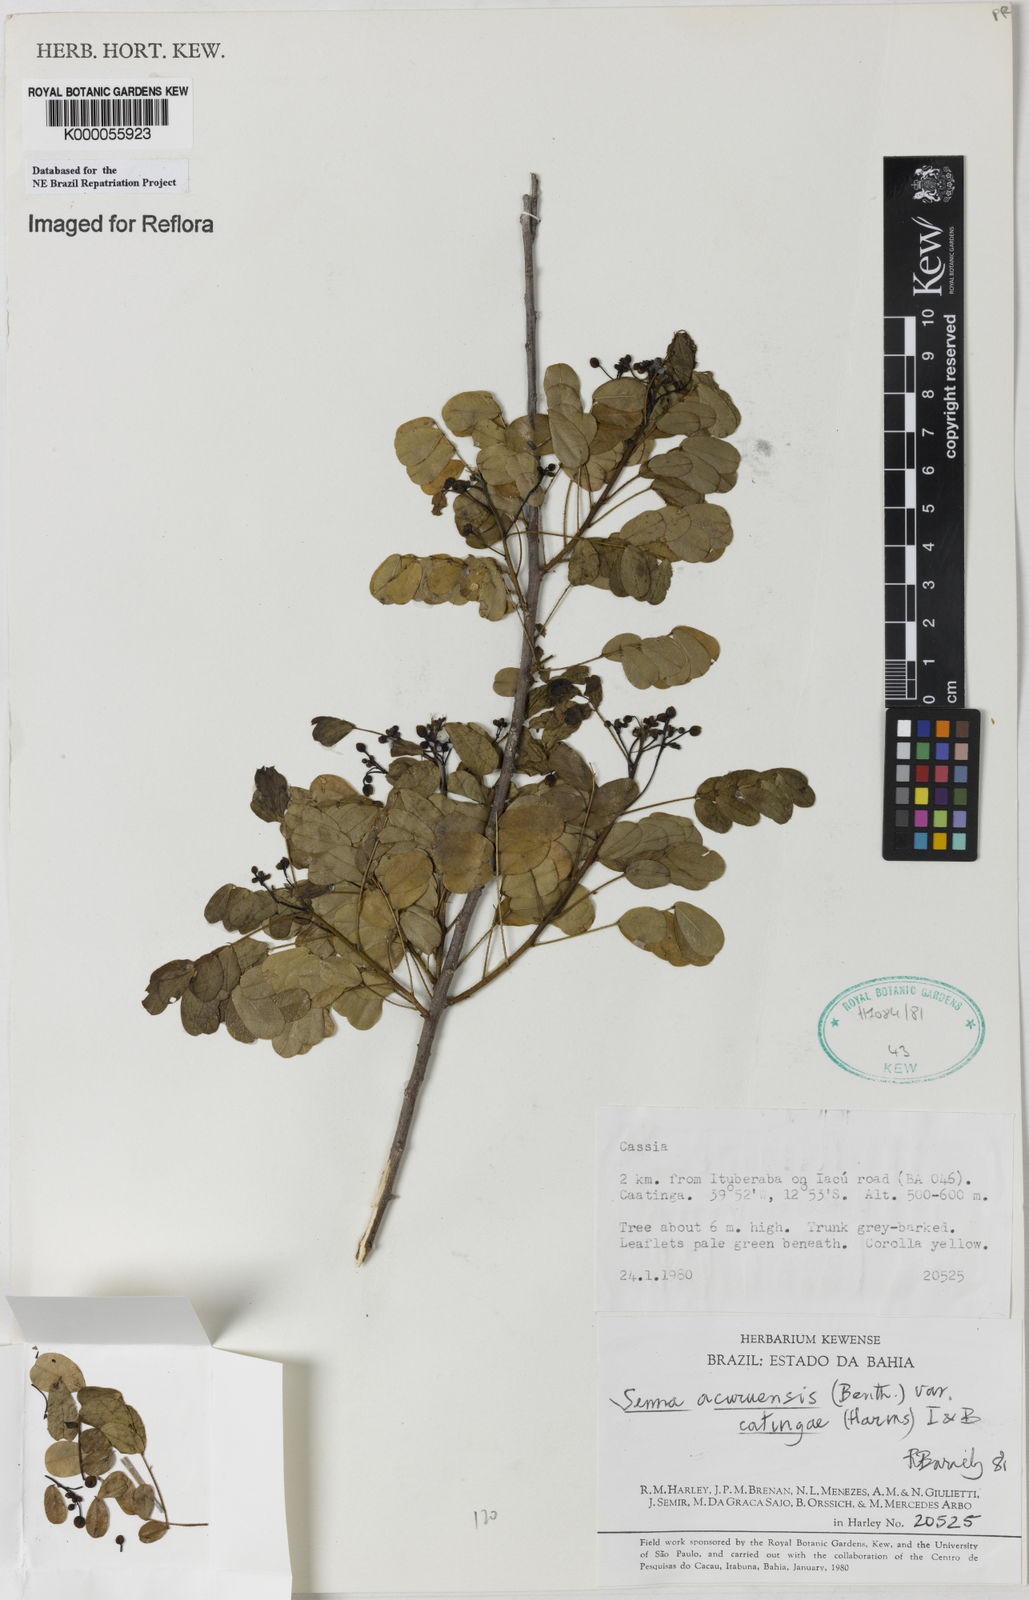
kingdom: Plantae
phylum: Tracheophyta
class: Magnoliopsida
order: Fabales
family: Fabaceae
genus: Senna
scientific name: Senna catingae
